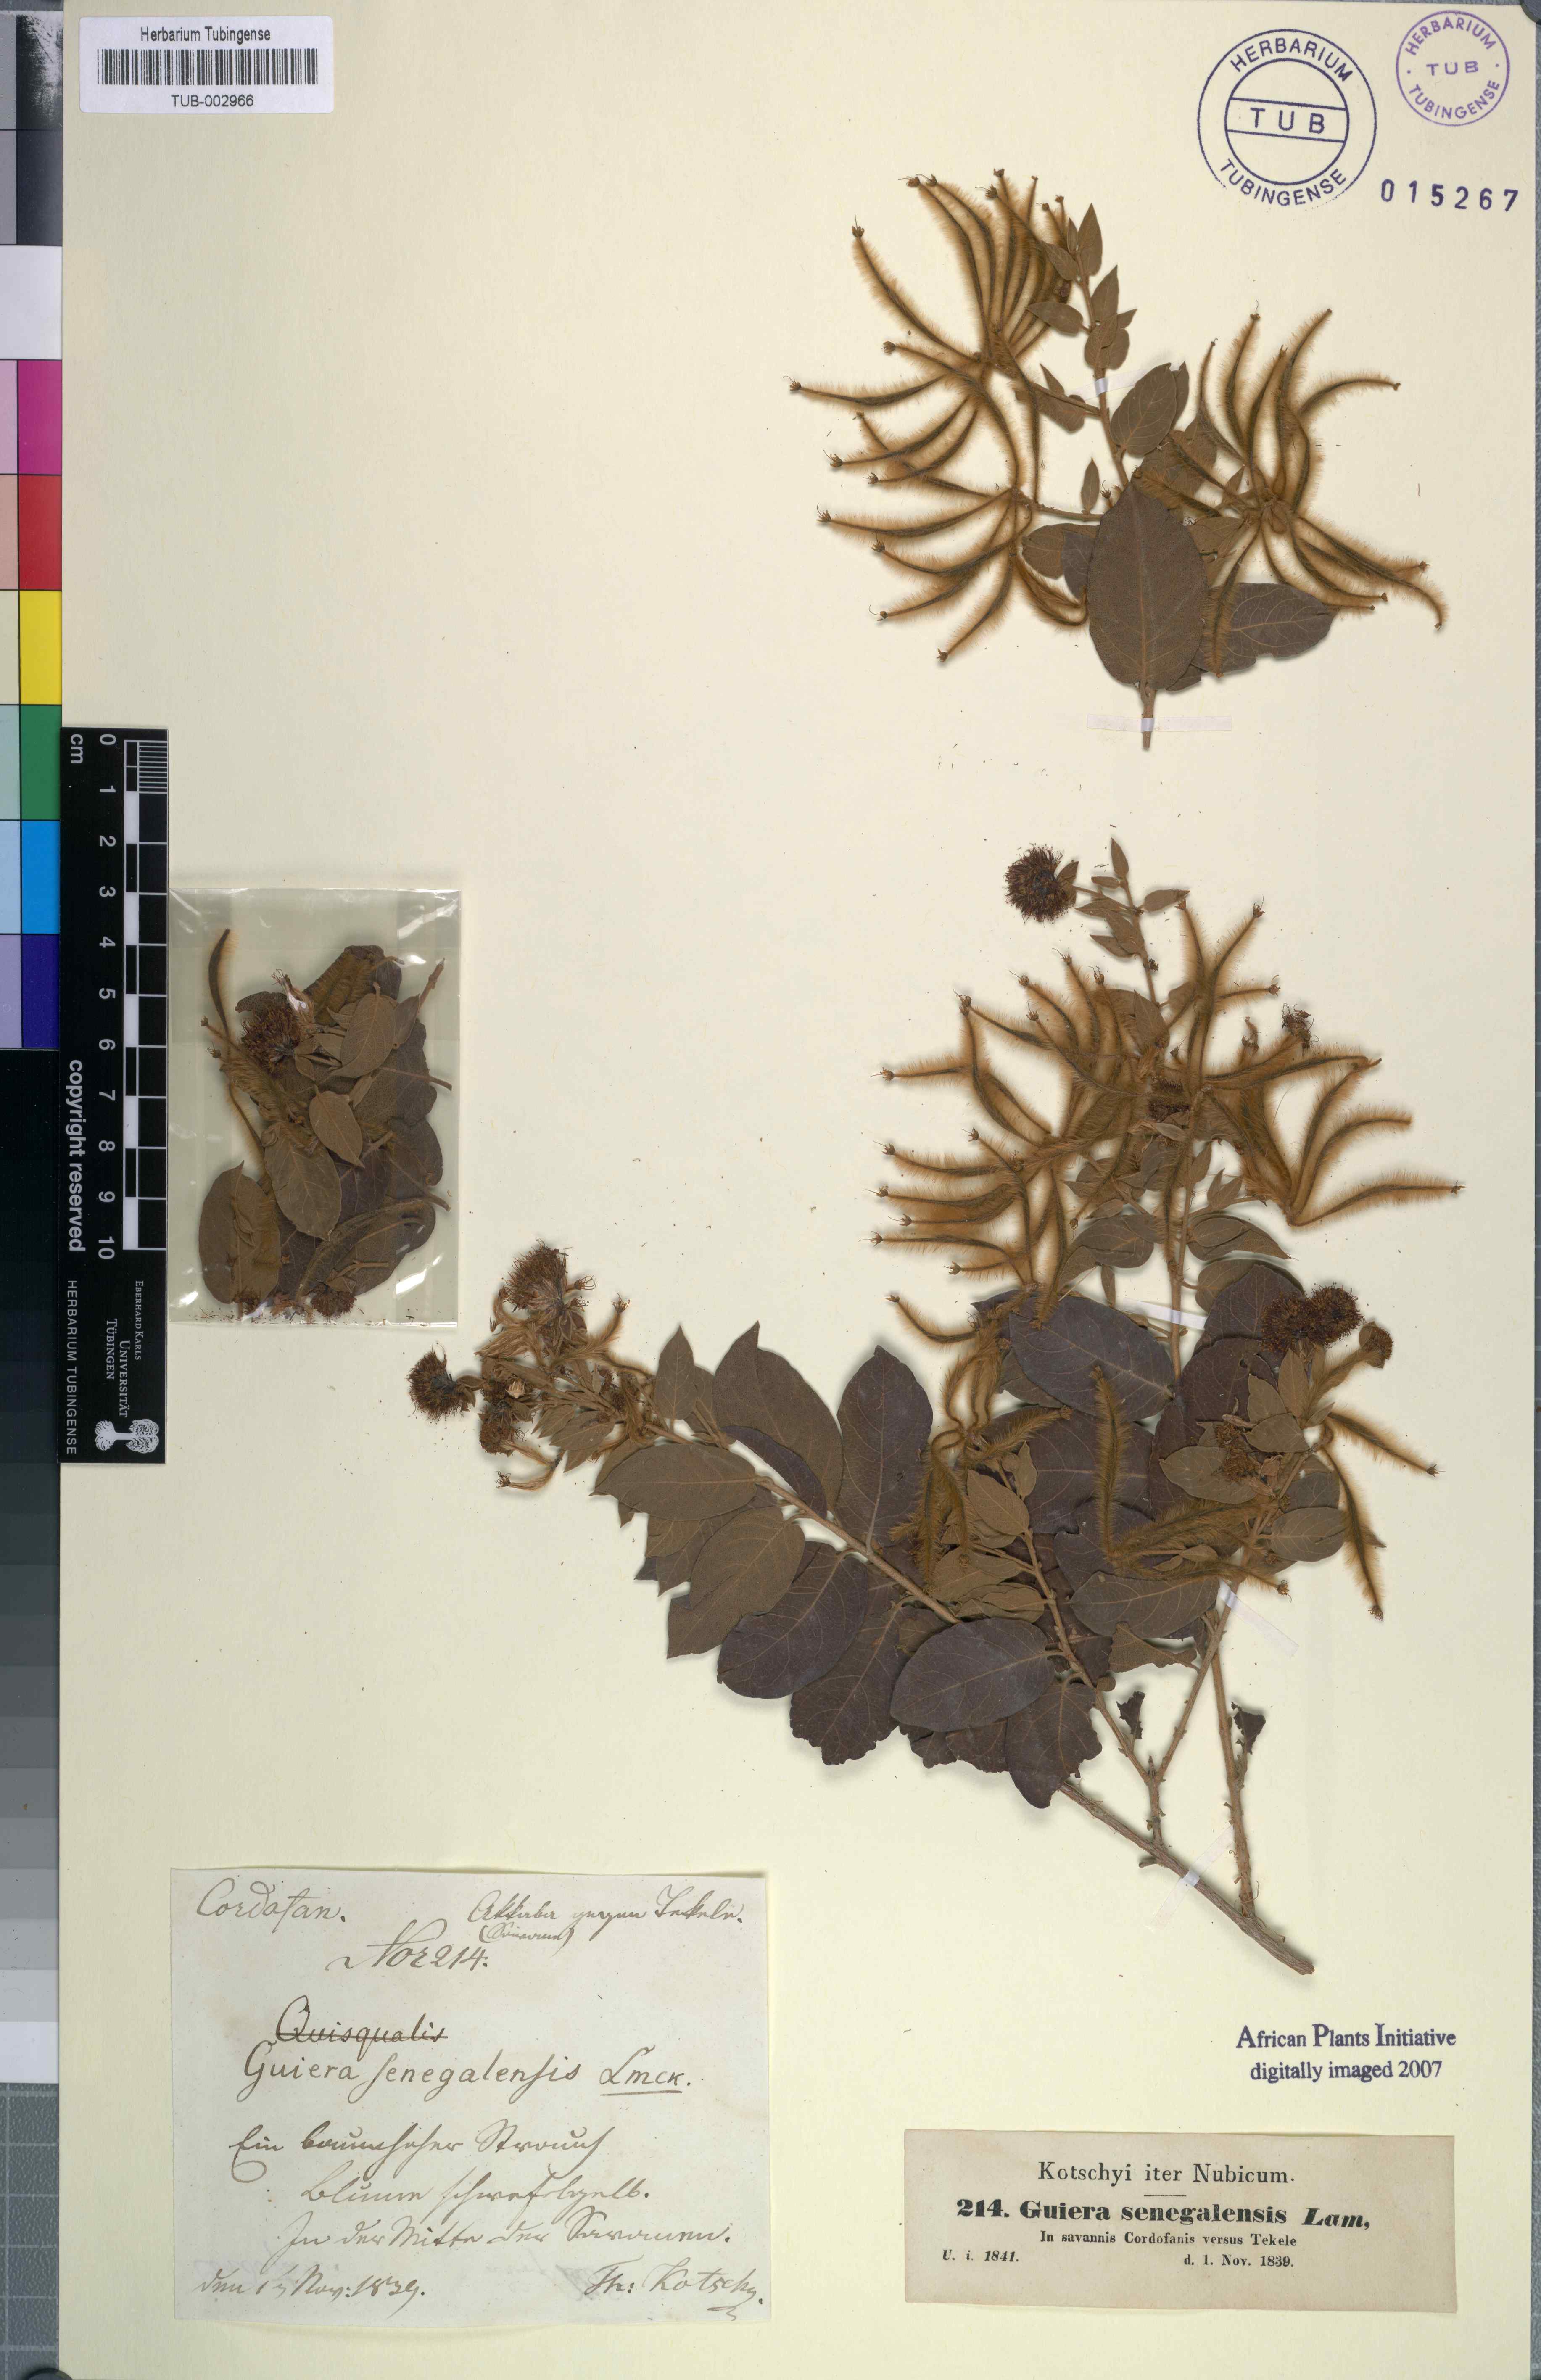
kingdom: Plantae
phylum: Tracheophyta
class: Magnoliopsida
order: Myrtales
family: Combretaceae
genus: Guiera
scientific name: Guiera senegalensis
